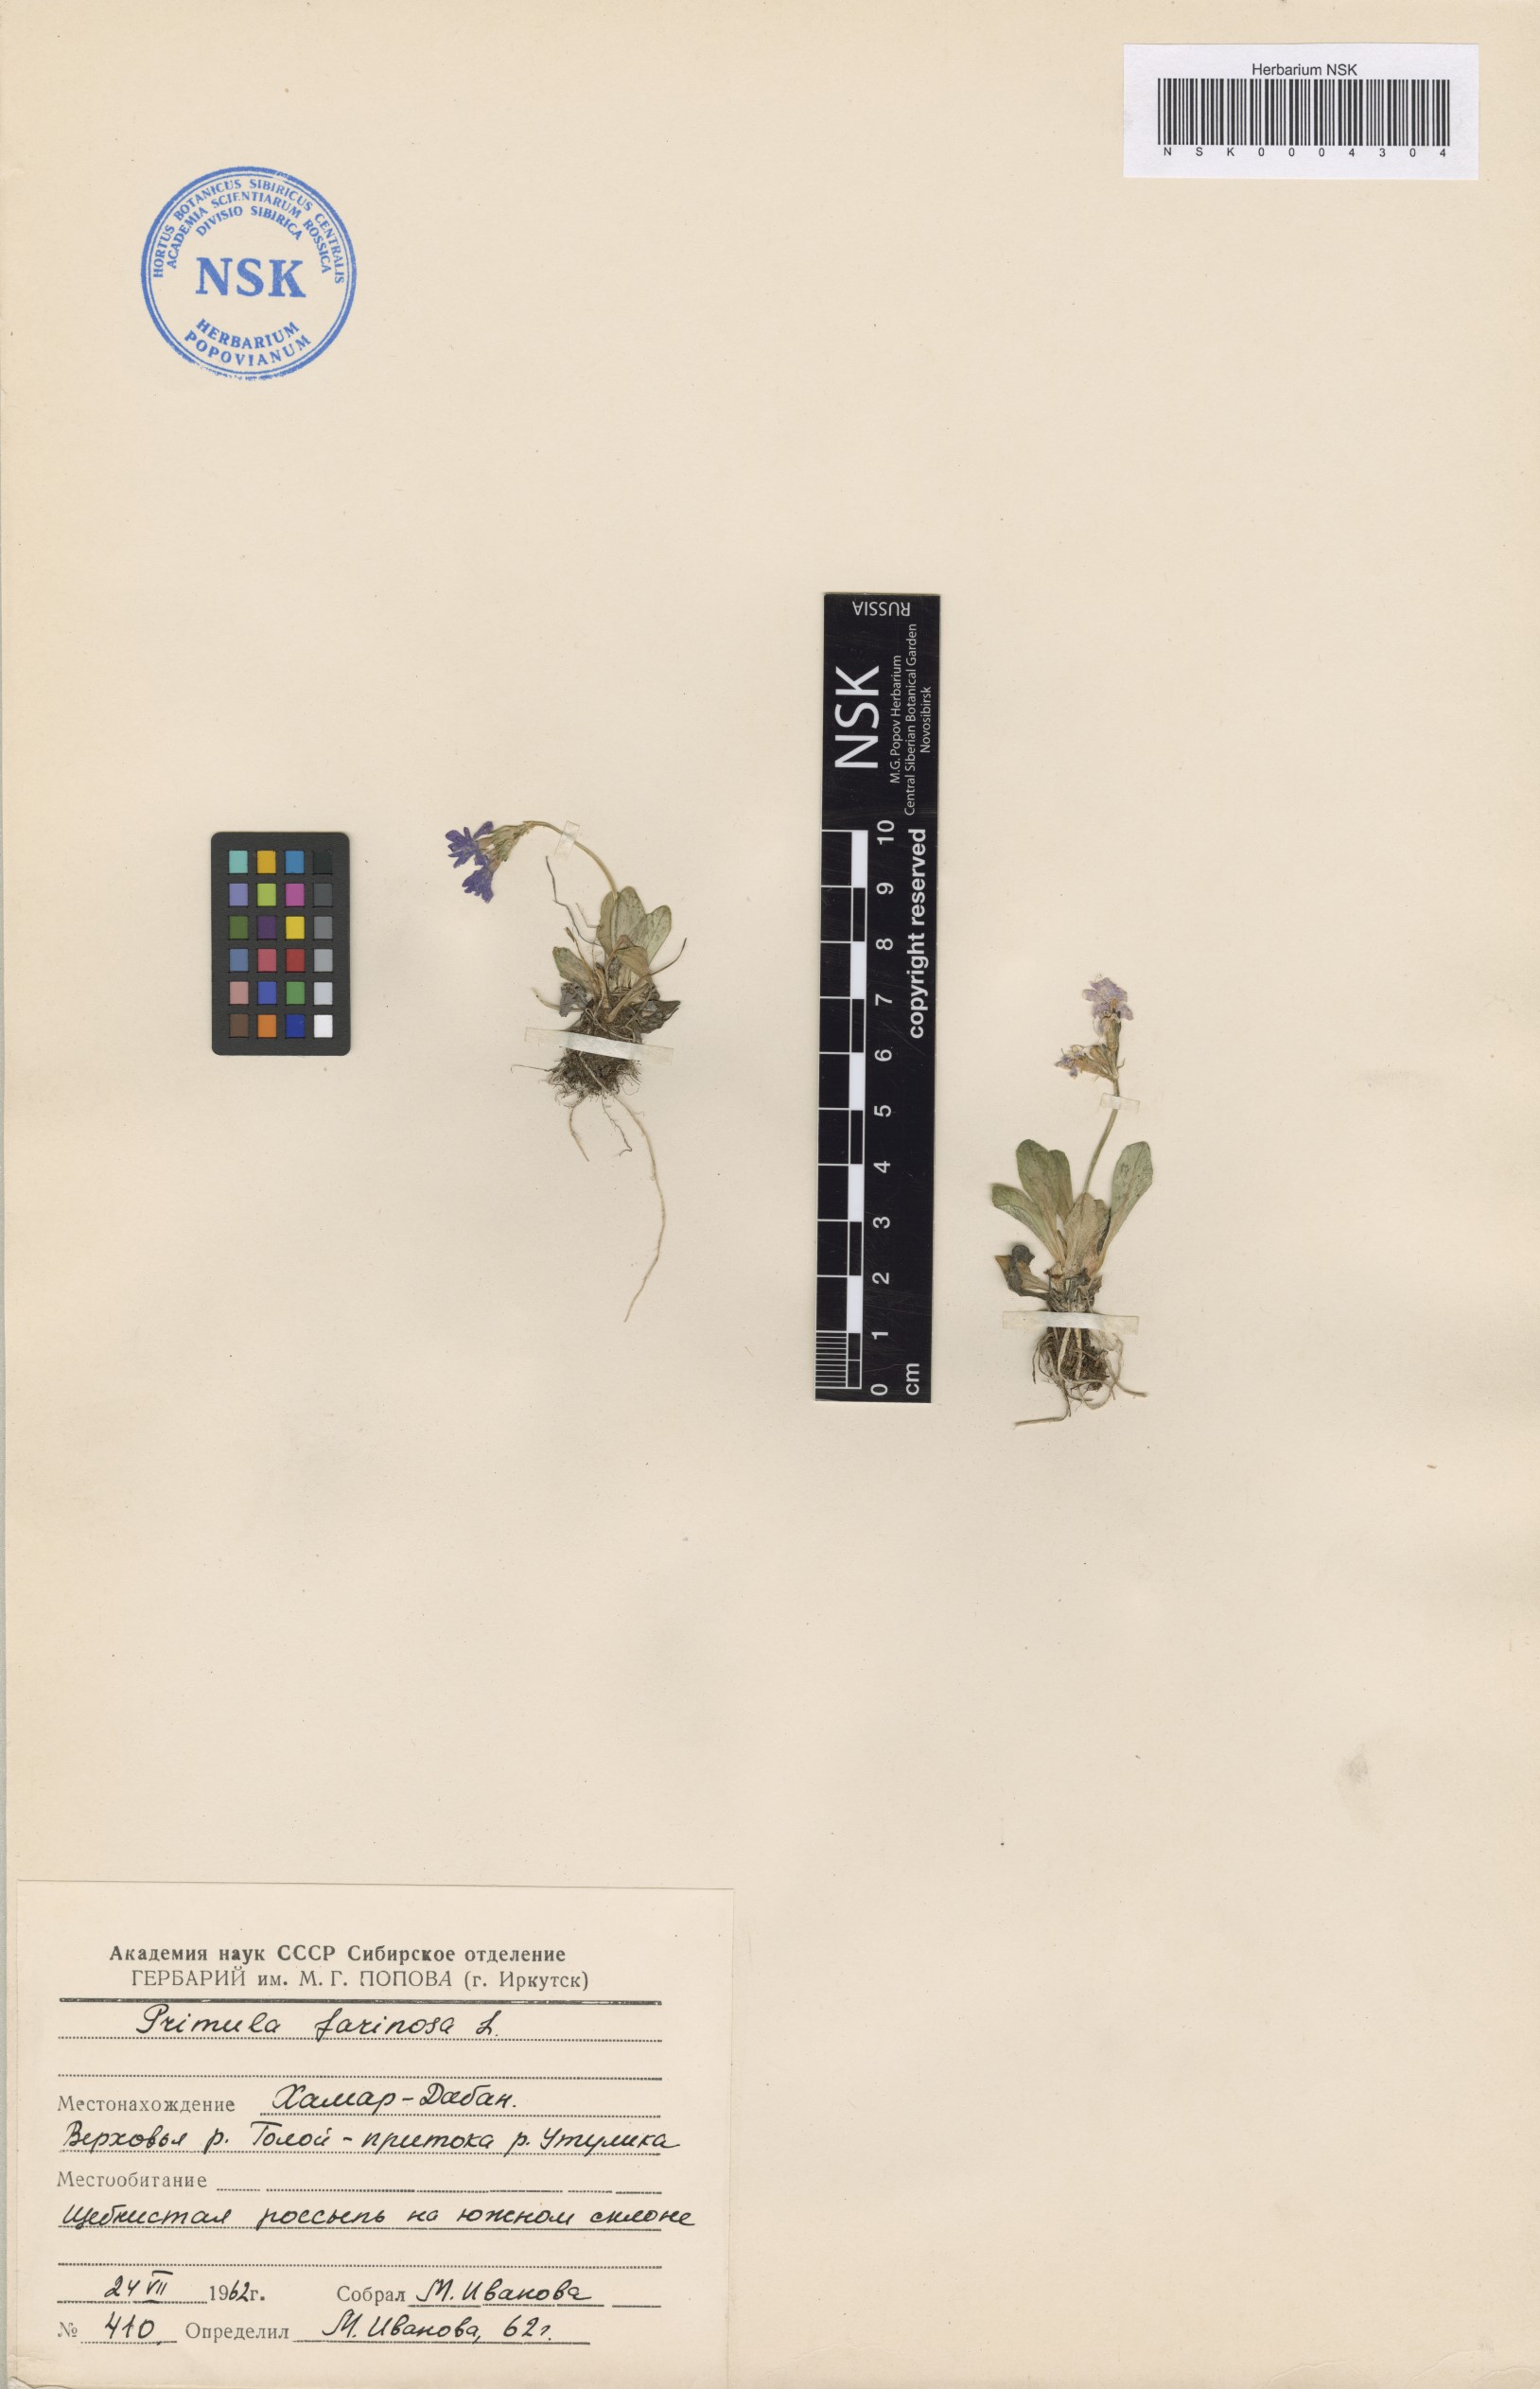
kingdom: Plantae
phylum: Tracheophyta
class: Magnoliopsida
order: Ericales
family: Primulaceae
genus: Primula
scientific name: Primula farinosa
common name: Bird's-eye primrose
